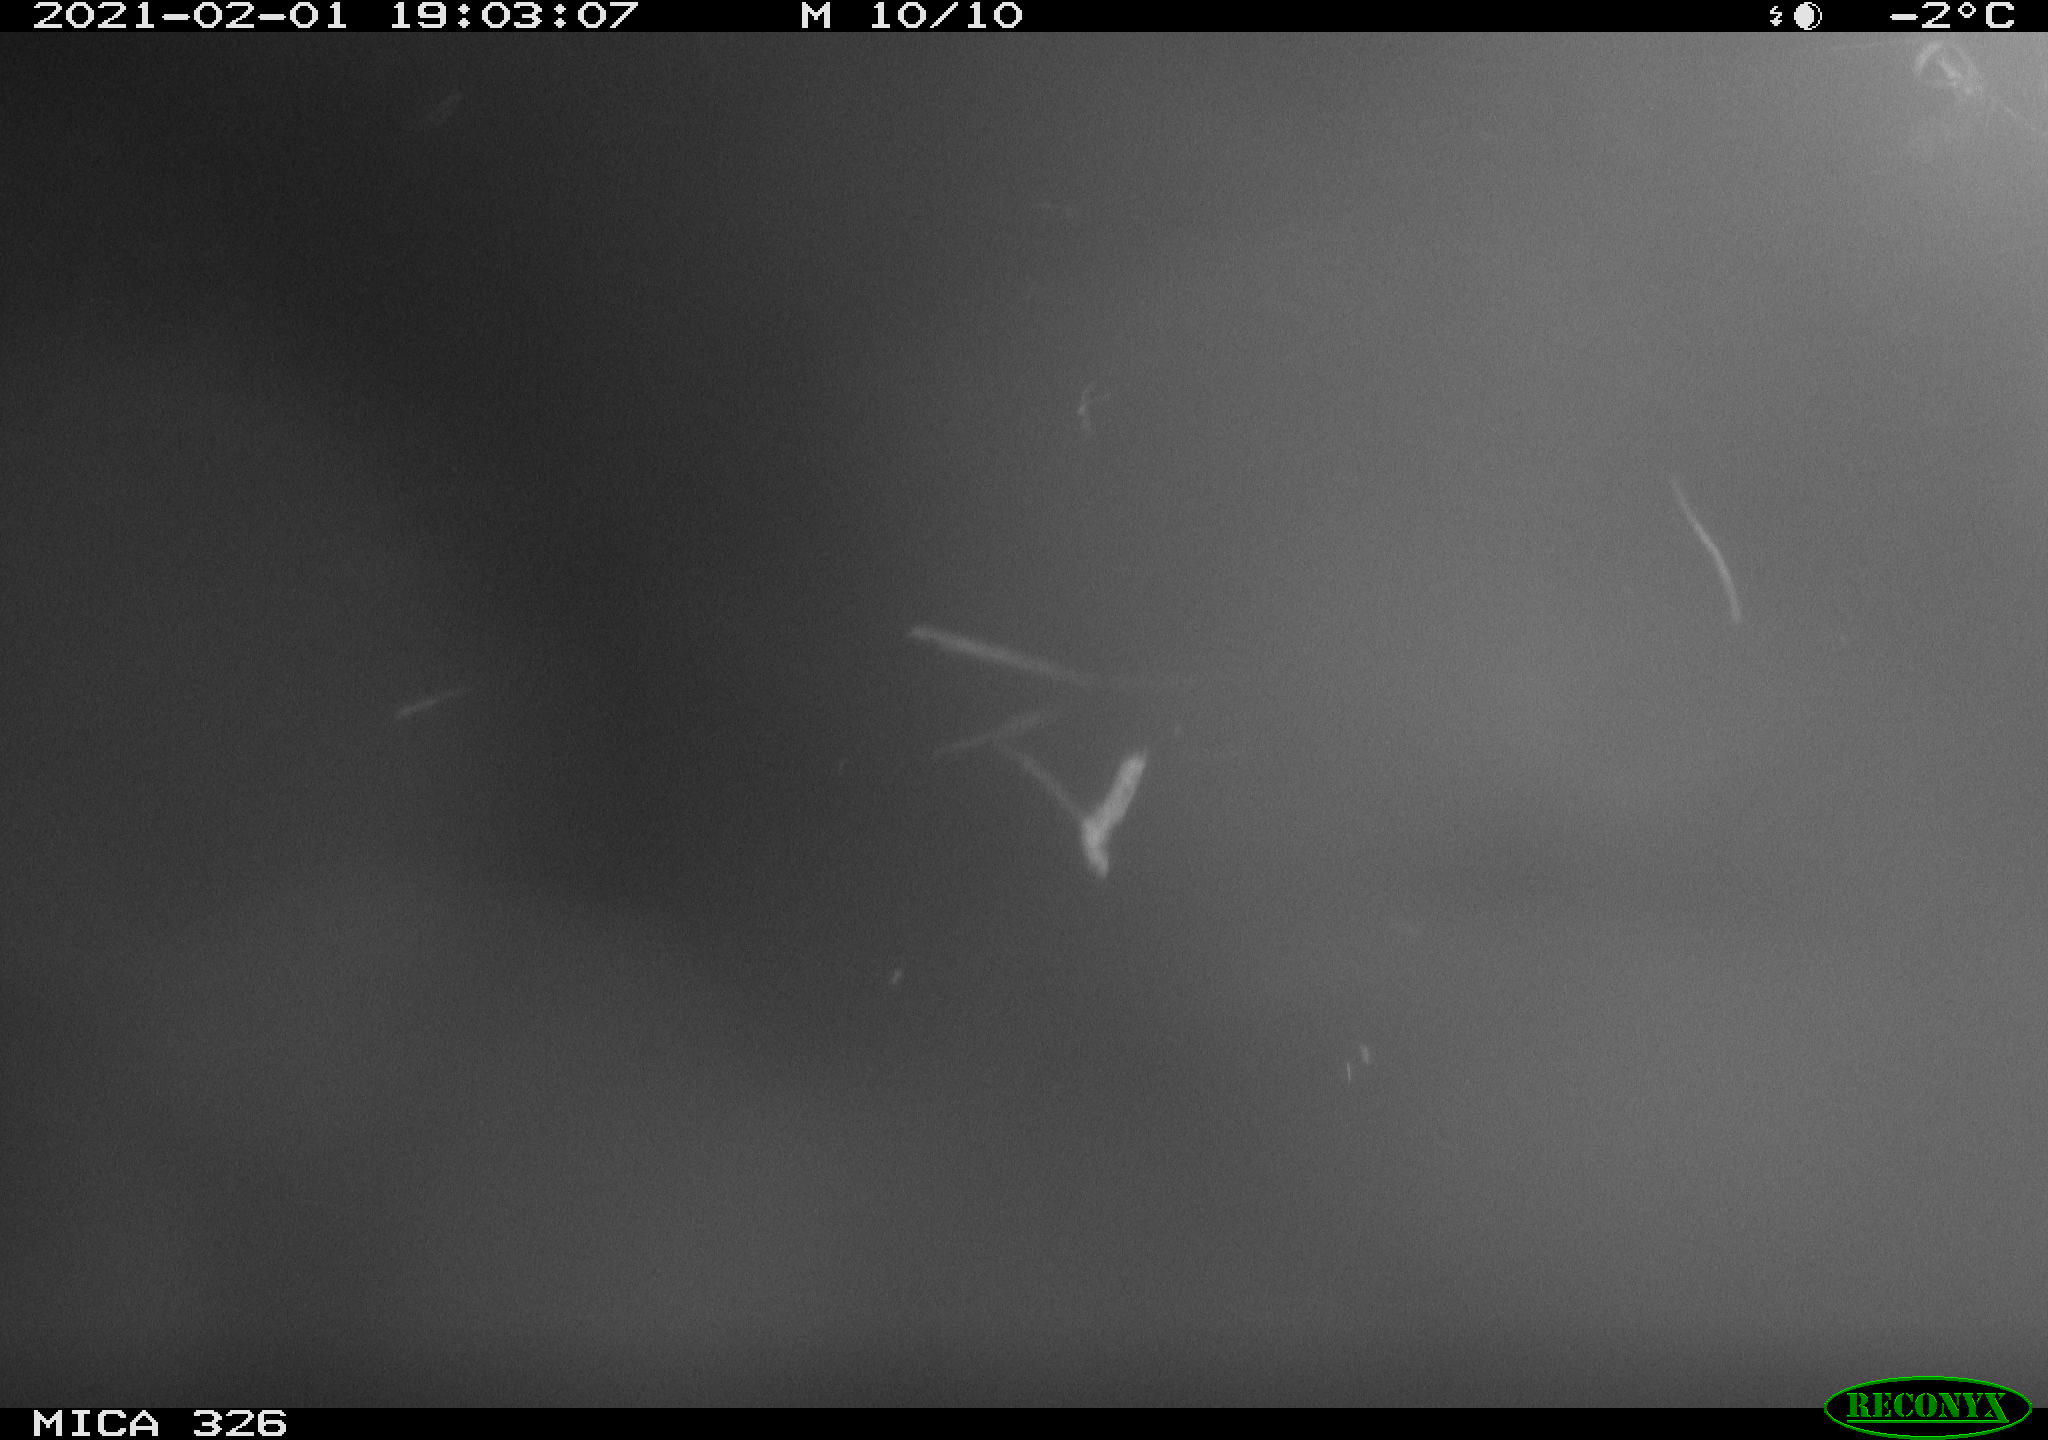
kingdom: Animalia
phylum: Chordata
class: Mammalia
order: Rodentia
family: Myocastoridae
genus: Myocastor
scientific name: Myocastor coypus
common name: Coypu
